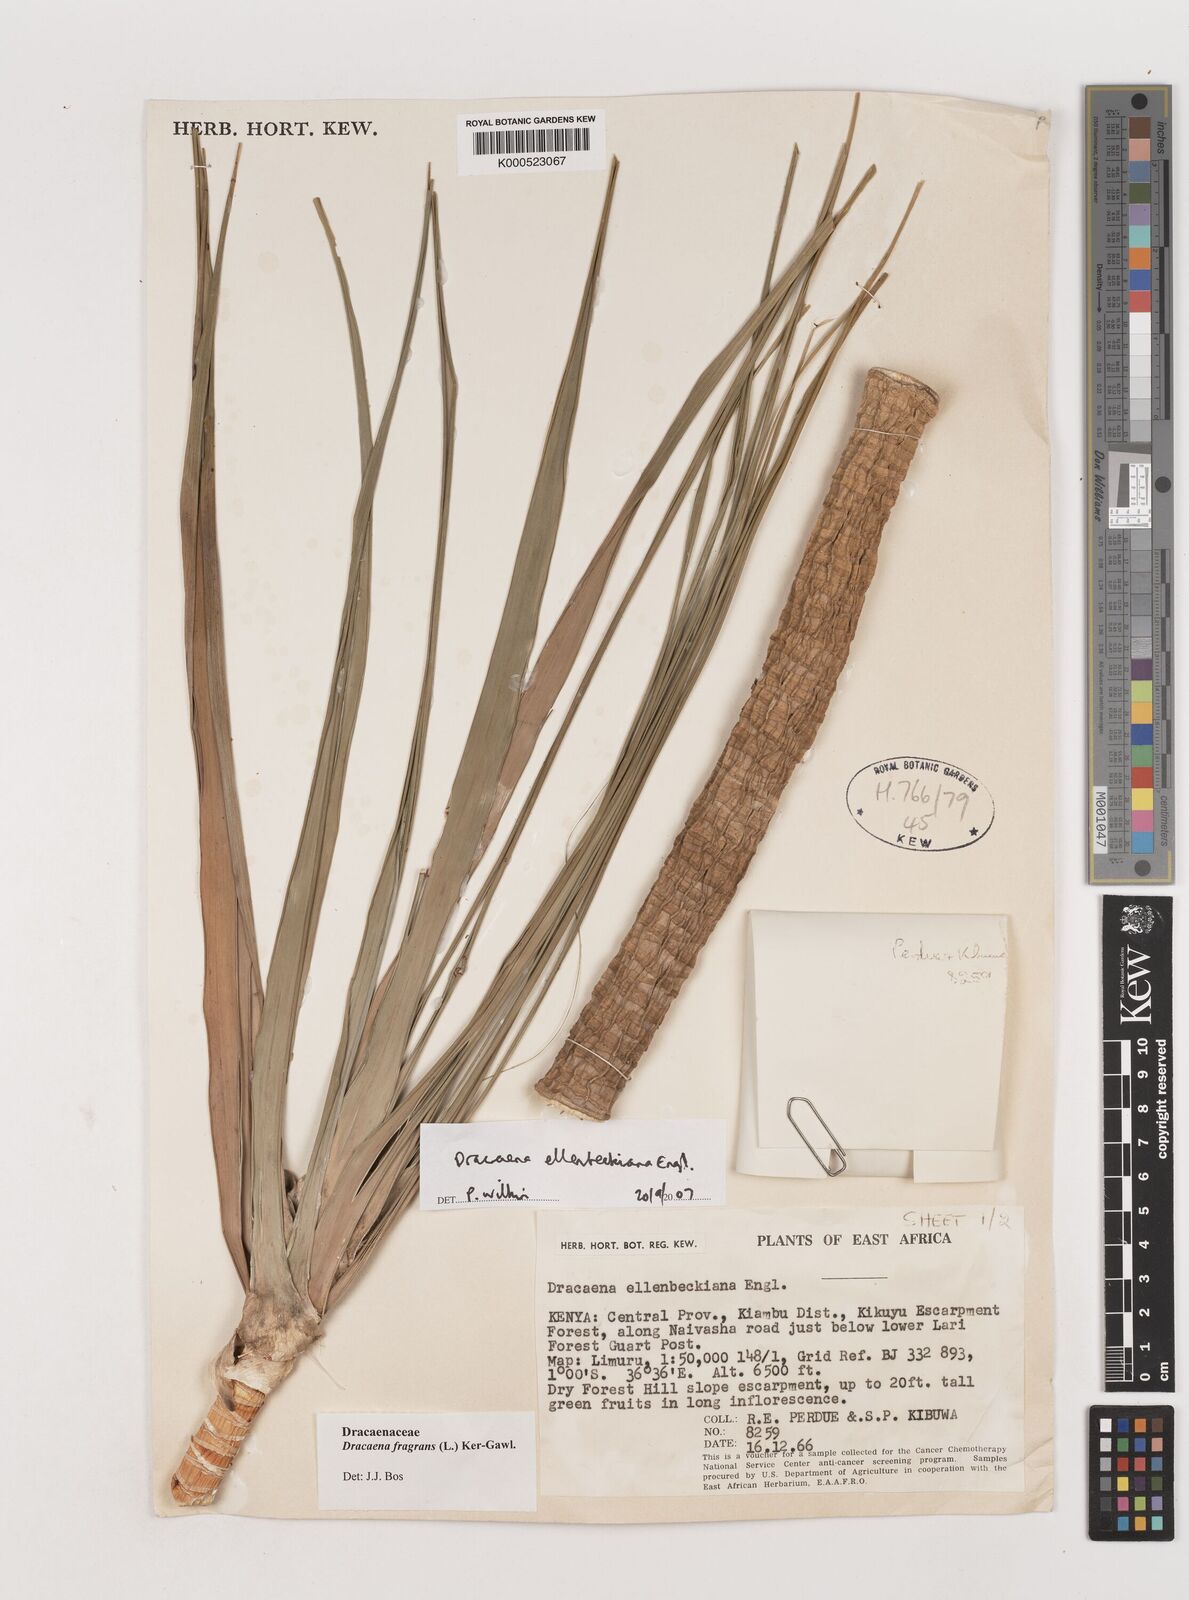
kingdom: Plantae
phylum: Tracheophyta
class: Liliopsida
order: Asparagales
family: Asparagaceae
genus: Dracaena
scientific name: Dracaena ellenbeckiana
